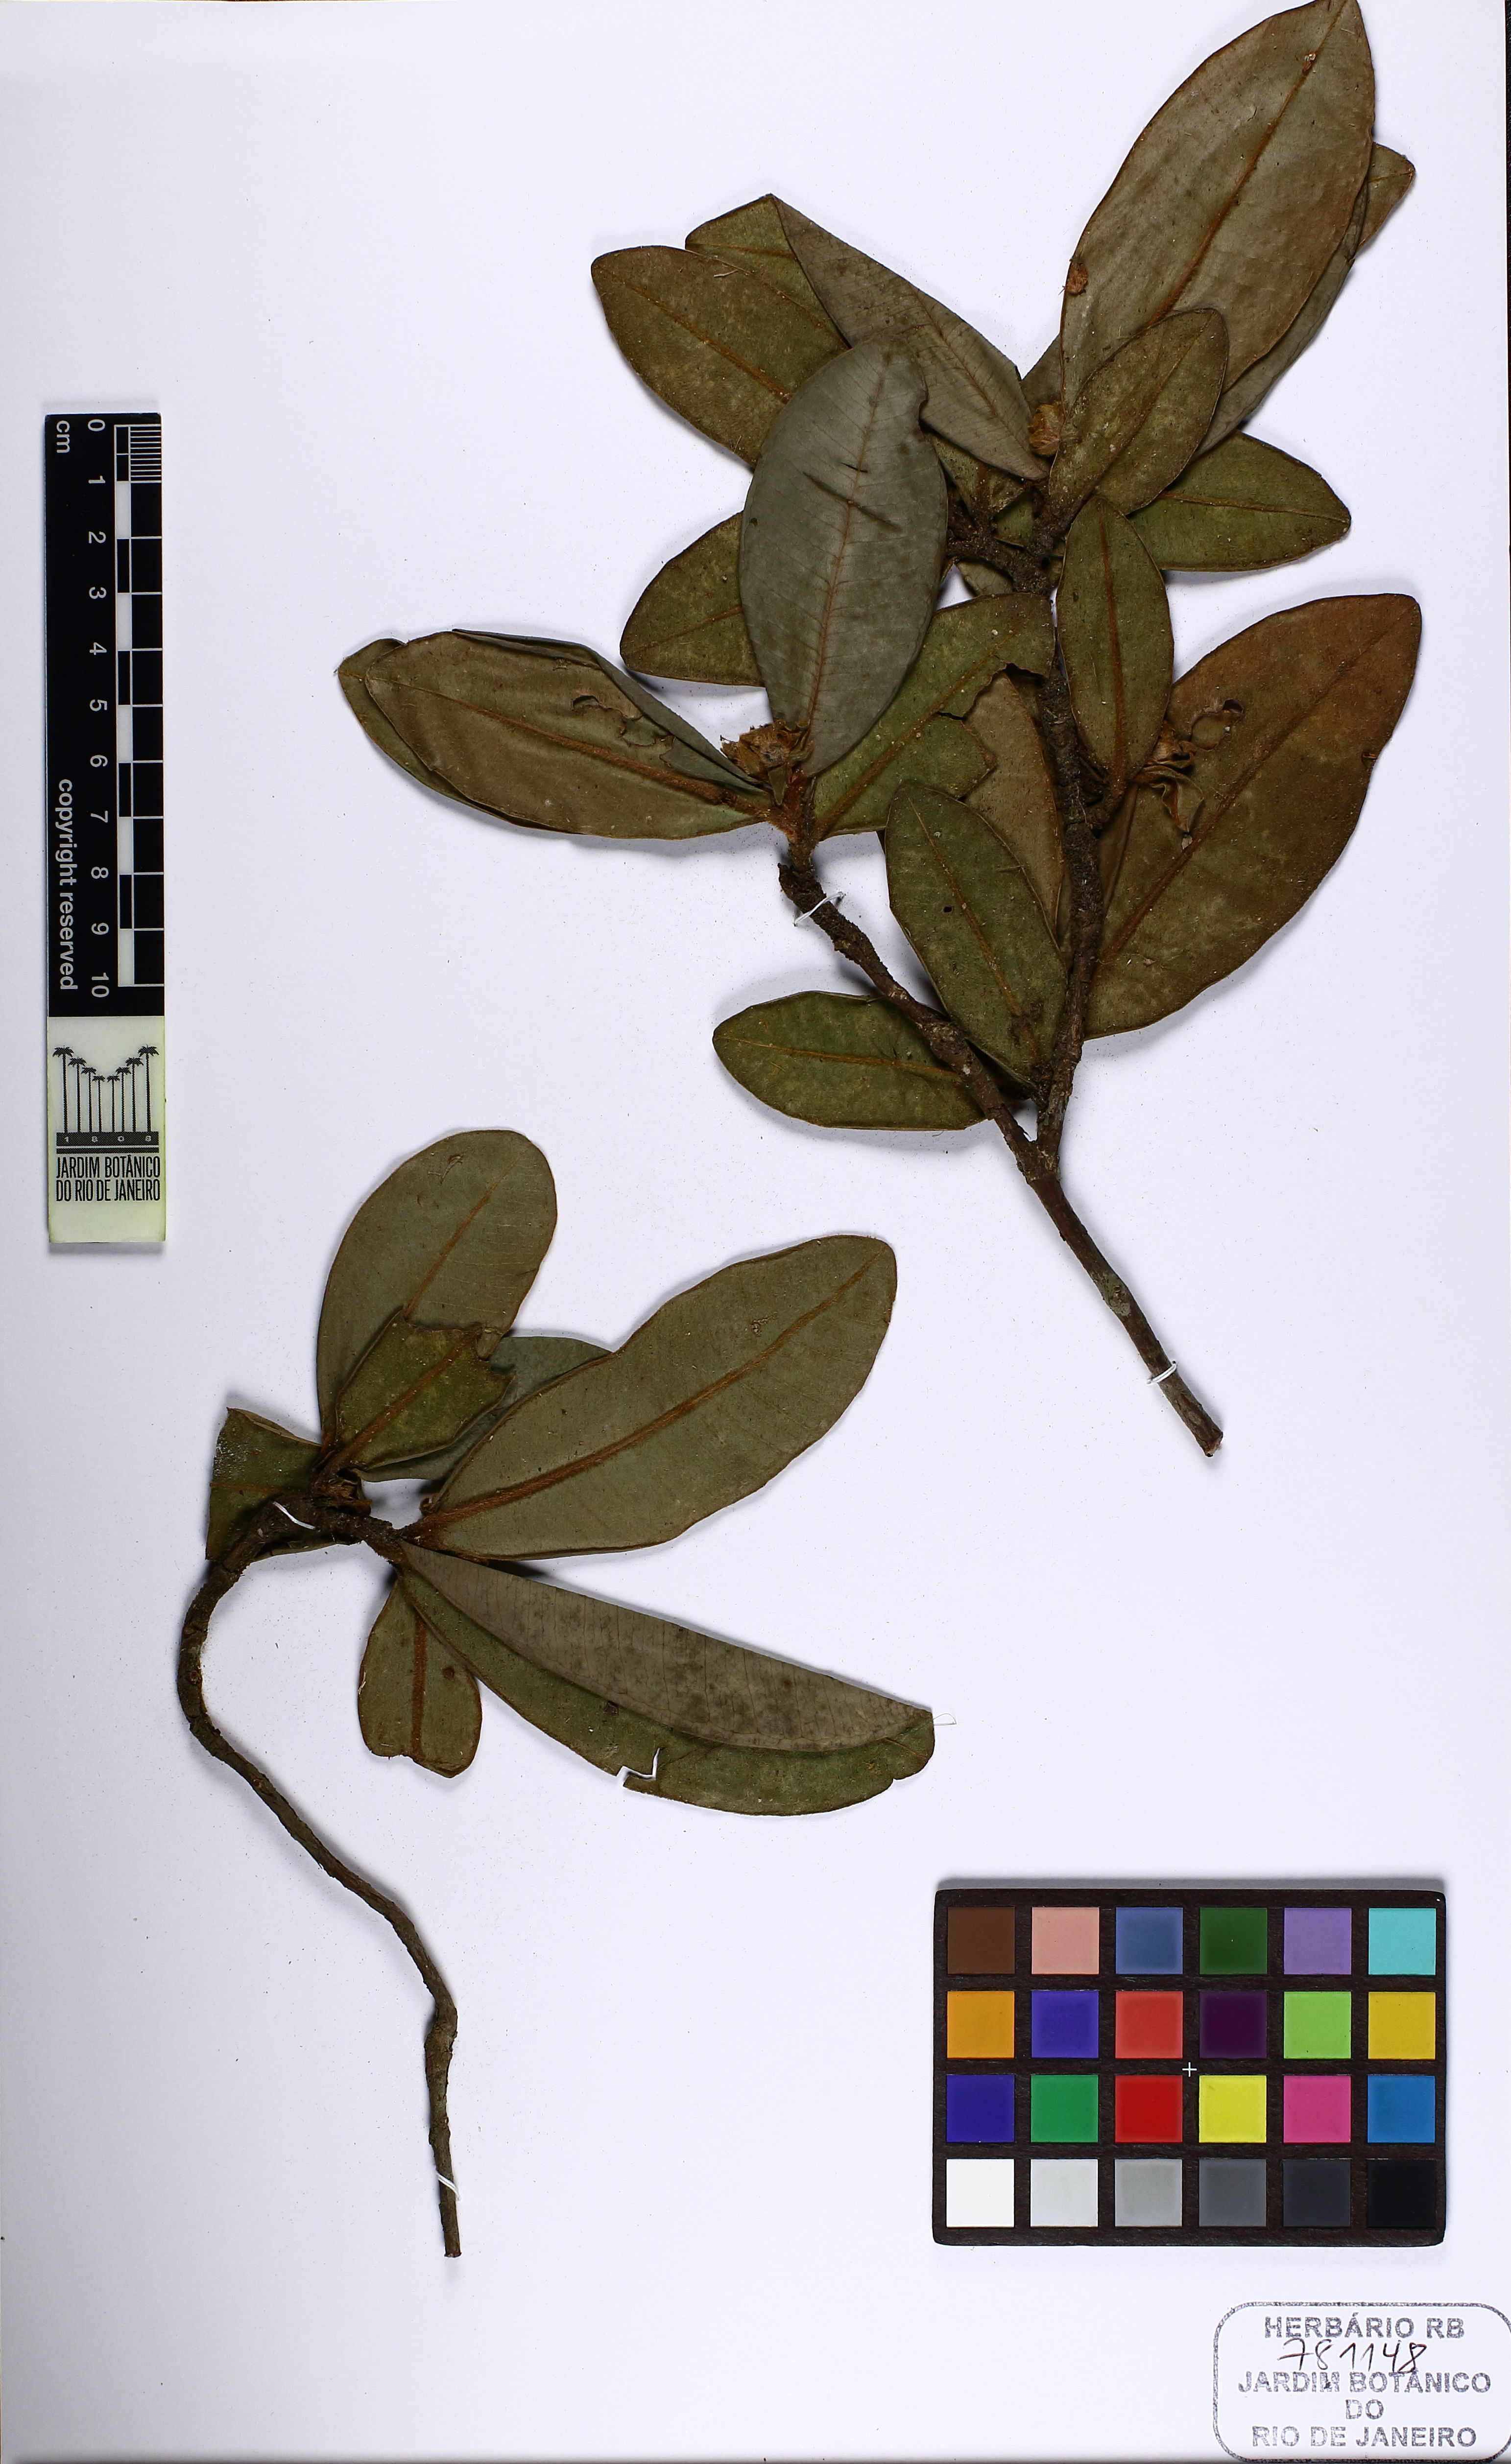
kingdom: Plantae
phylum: Tracheophyta
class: Magnoliopsida
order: Myrtales
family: Myrtaceae
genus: Myrcia
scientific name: Myrcia carvalhoi
